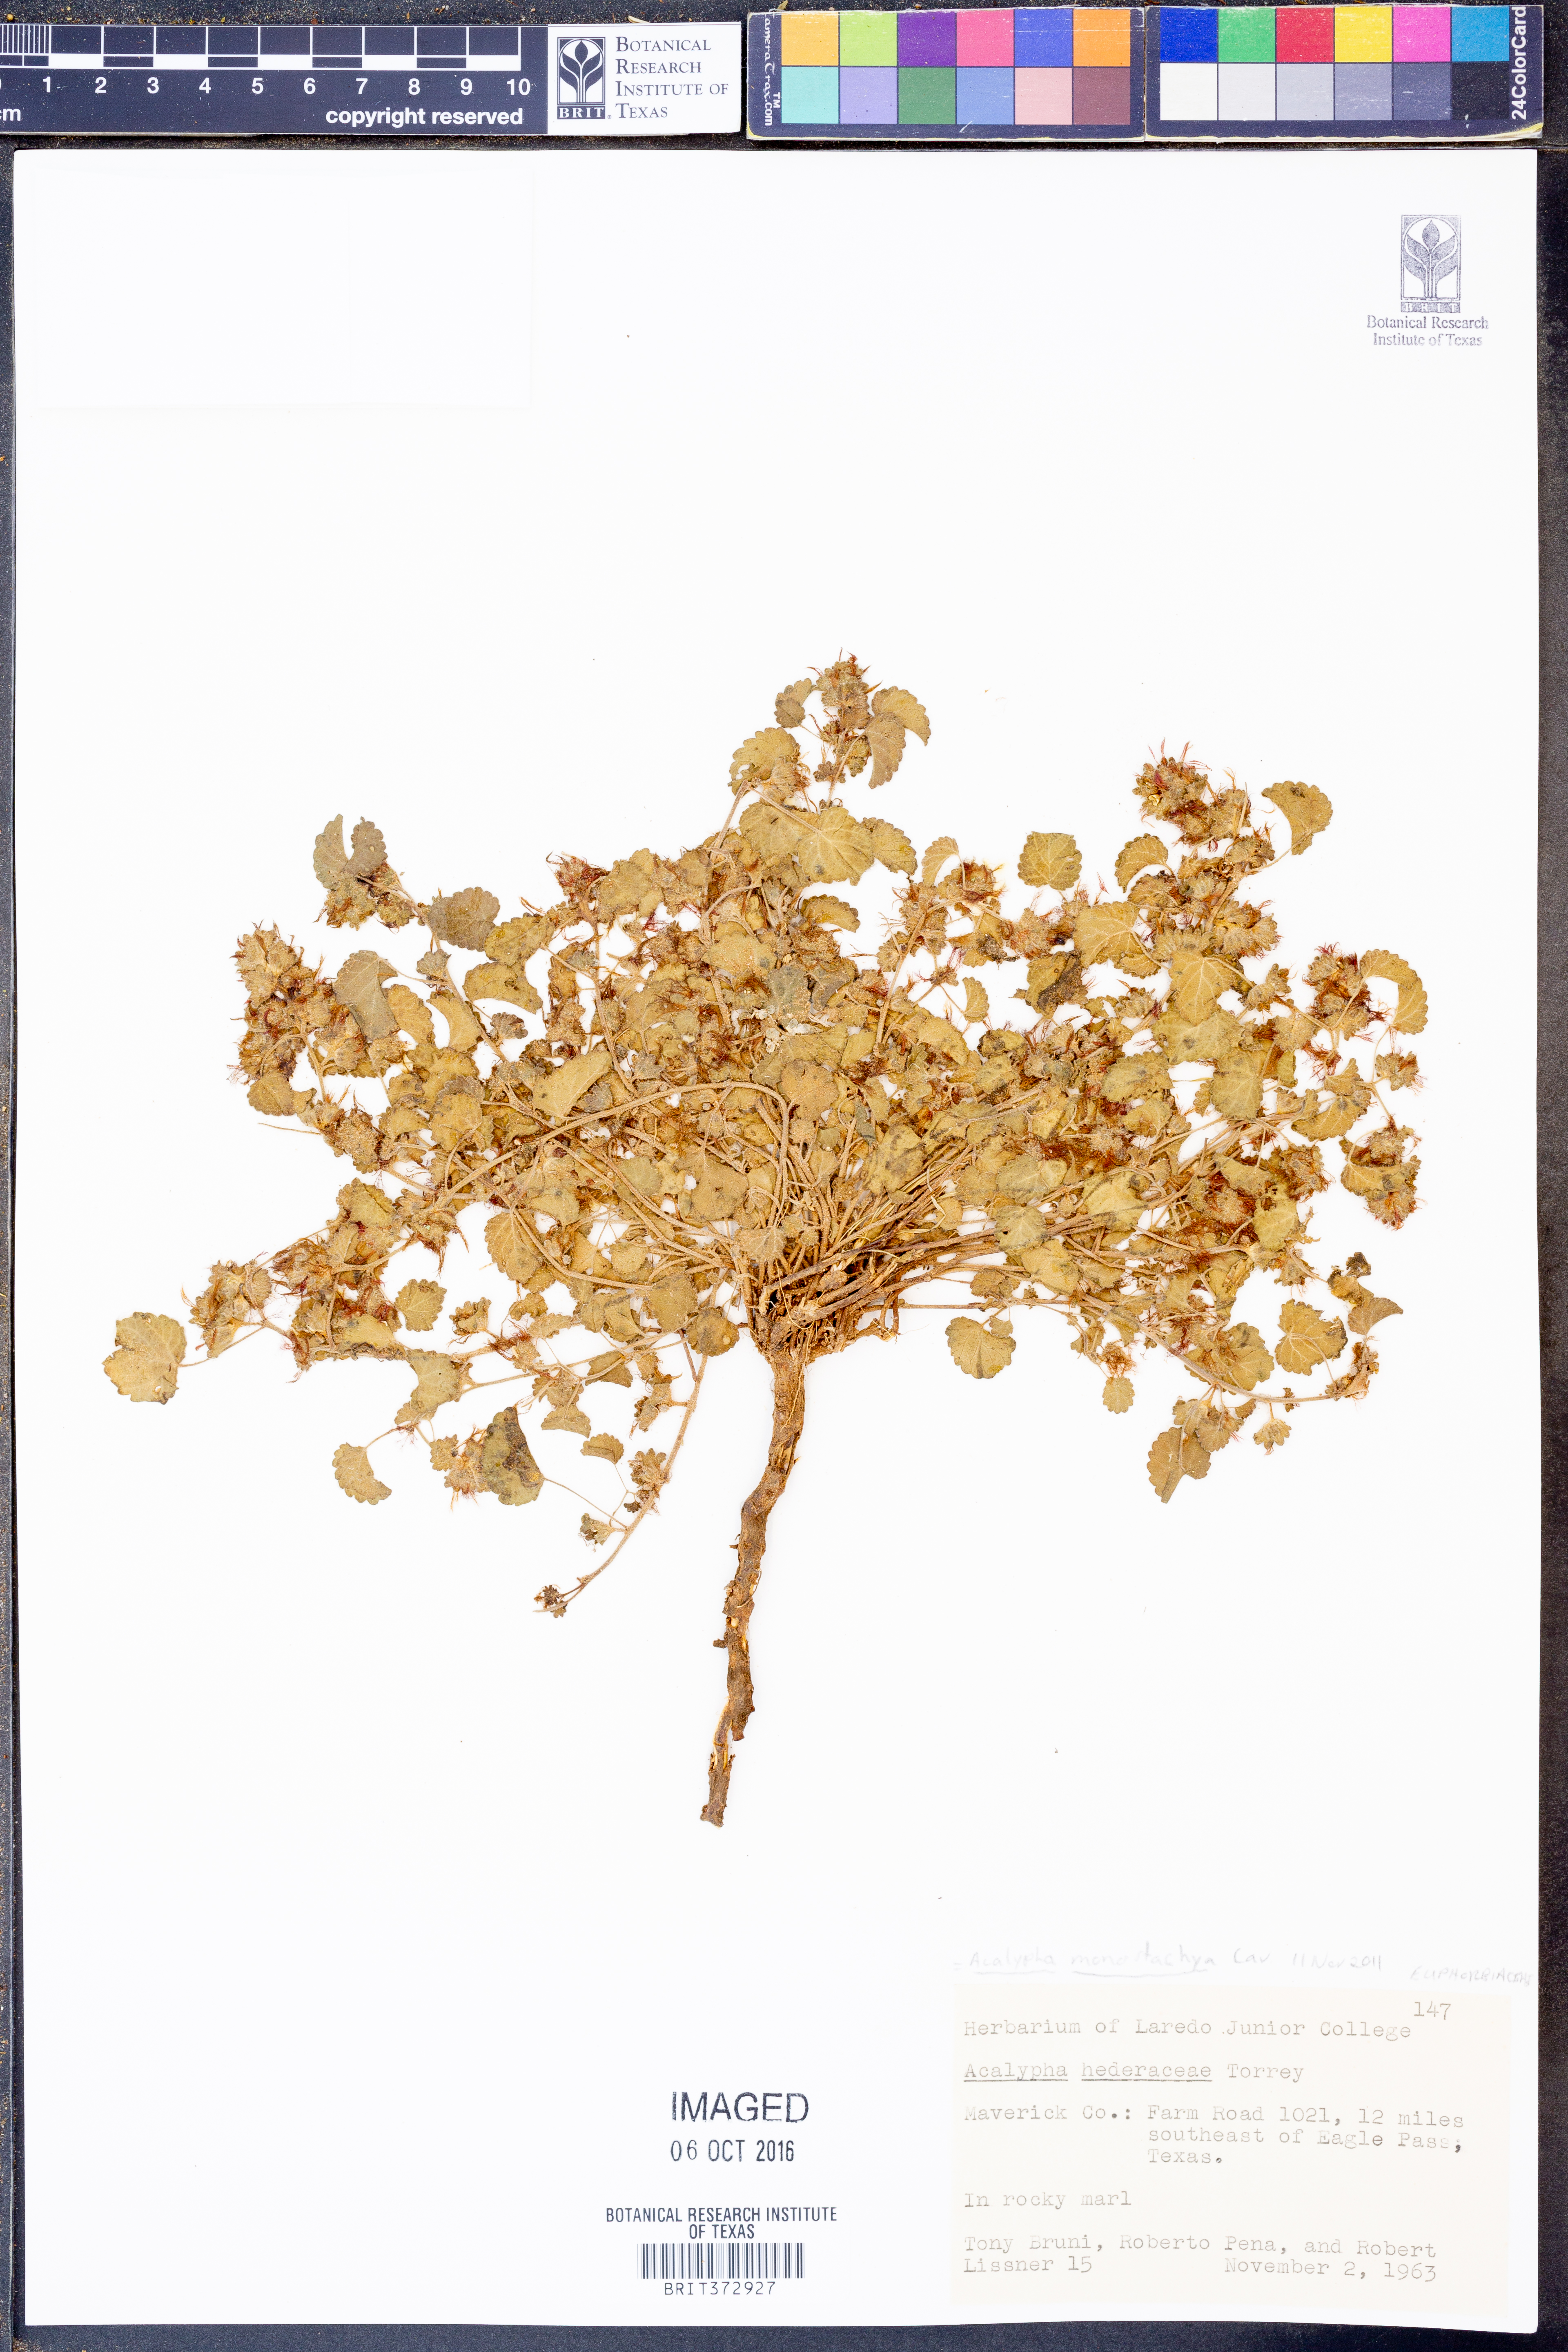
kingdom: Plantae
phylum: Tracheophyta
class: Magnoliopsida
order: Malpighiales
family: Euphorbiaceae
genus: Acalypha
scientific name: Acalypha monostachya
